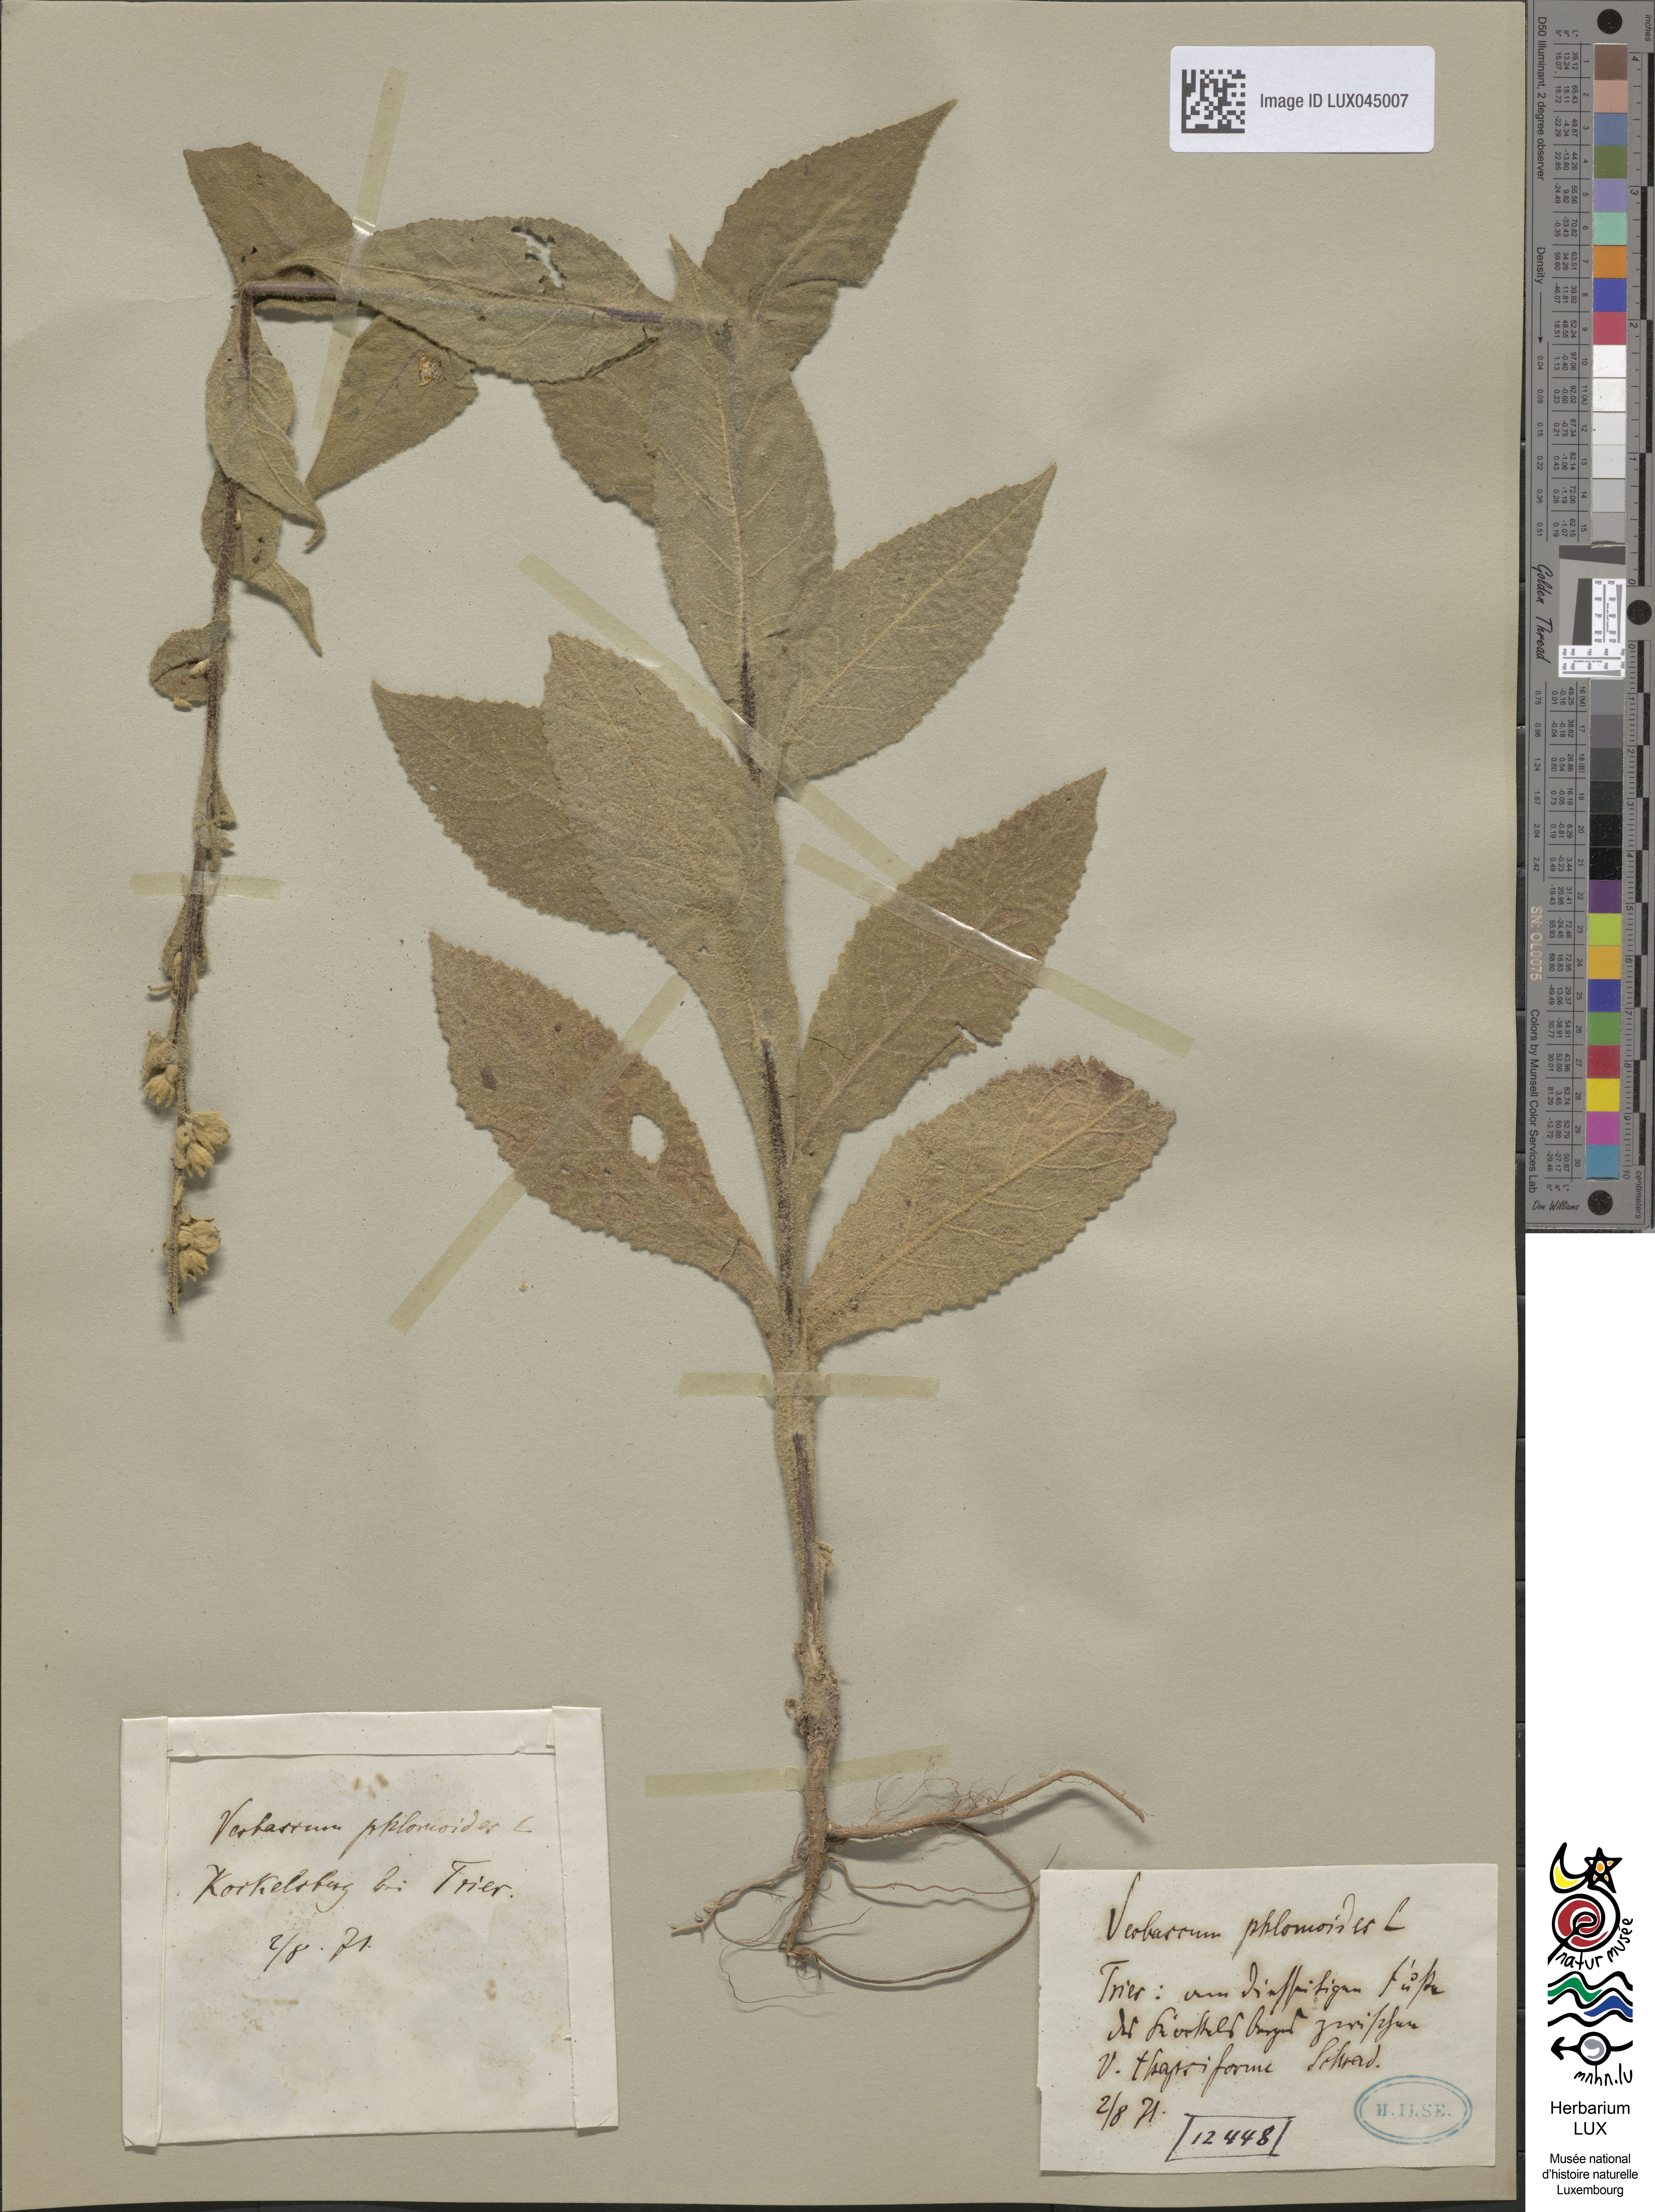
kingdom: Plantae
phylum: Tracheophyta
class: Magnoliopsida
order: Lamiales
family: Scrophulariaceae
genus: Verbascum
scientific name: Verbascum phlomoides
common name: Orange mullein
